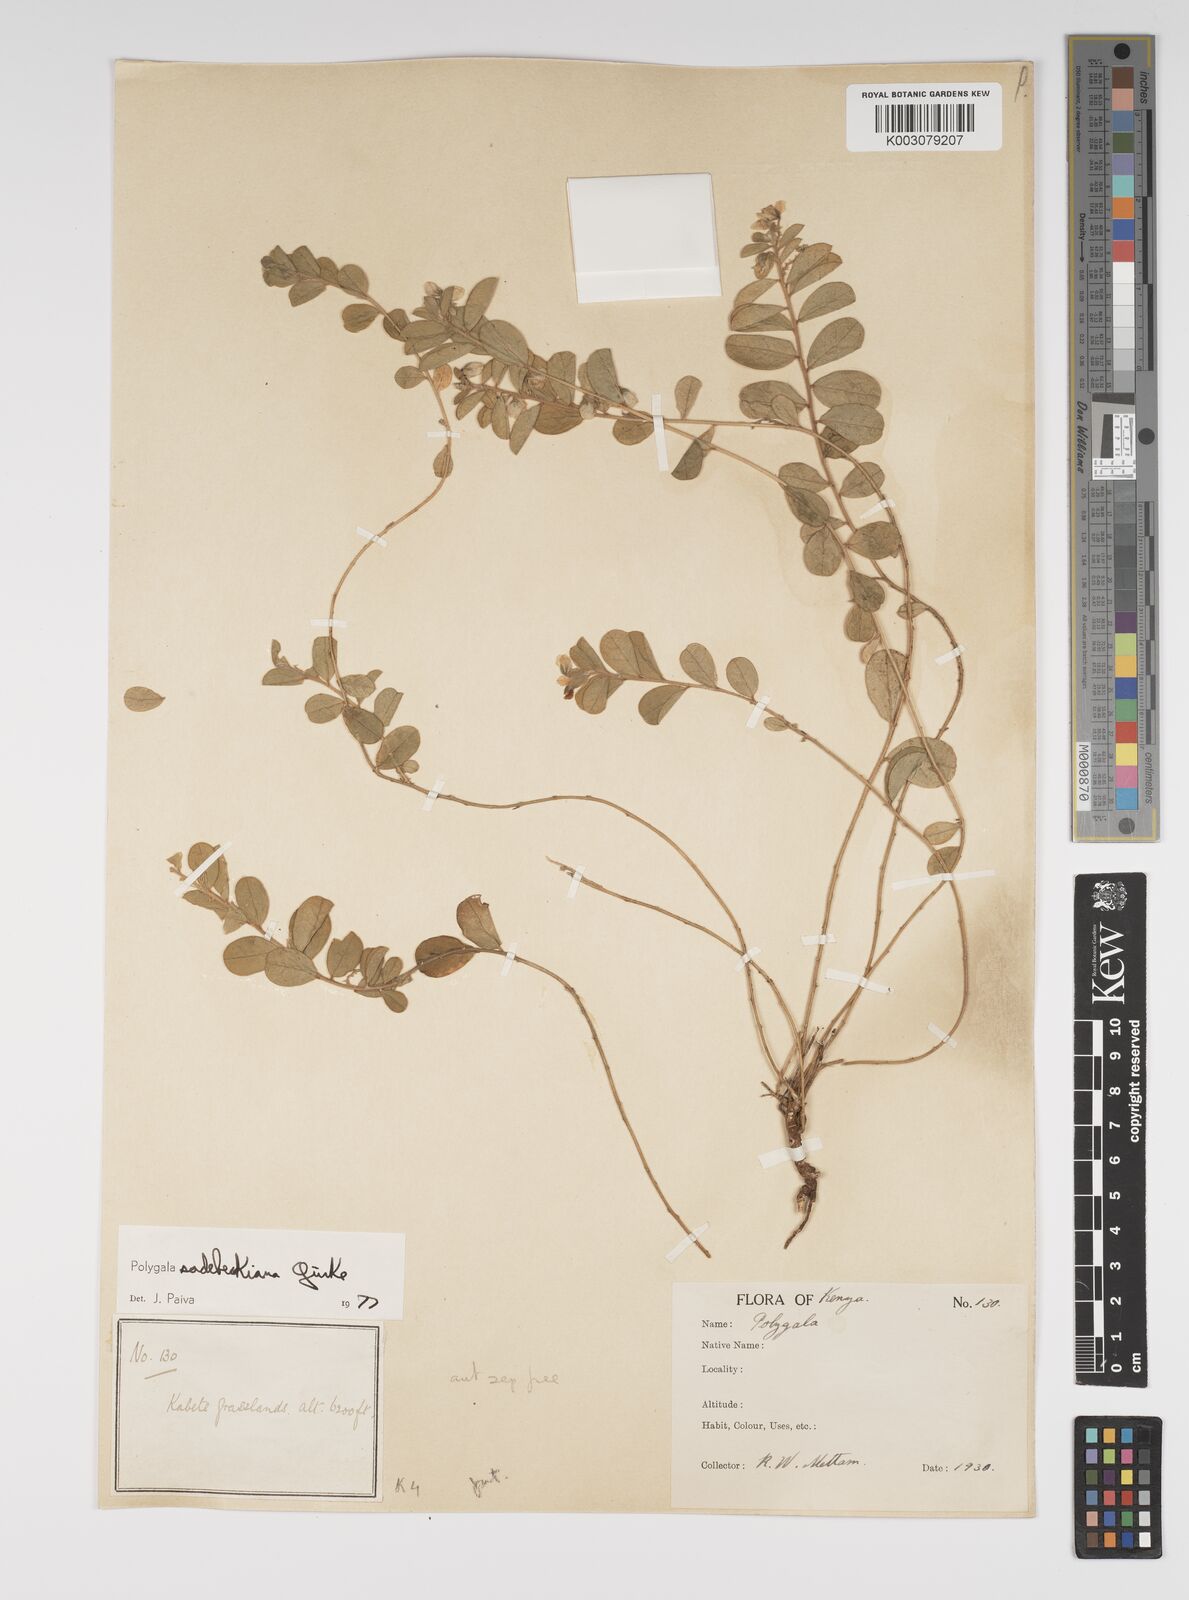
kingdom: Plantae
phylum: Tracheophyta
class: Magnoliopsida
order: Fabales
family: Polygalaceae
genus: Polygala
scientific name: Polygala sadebeckiana
